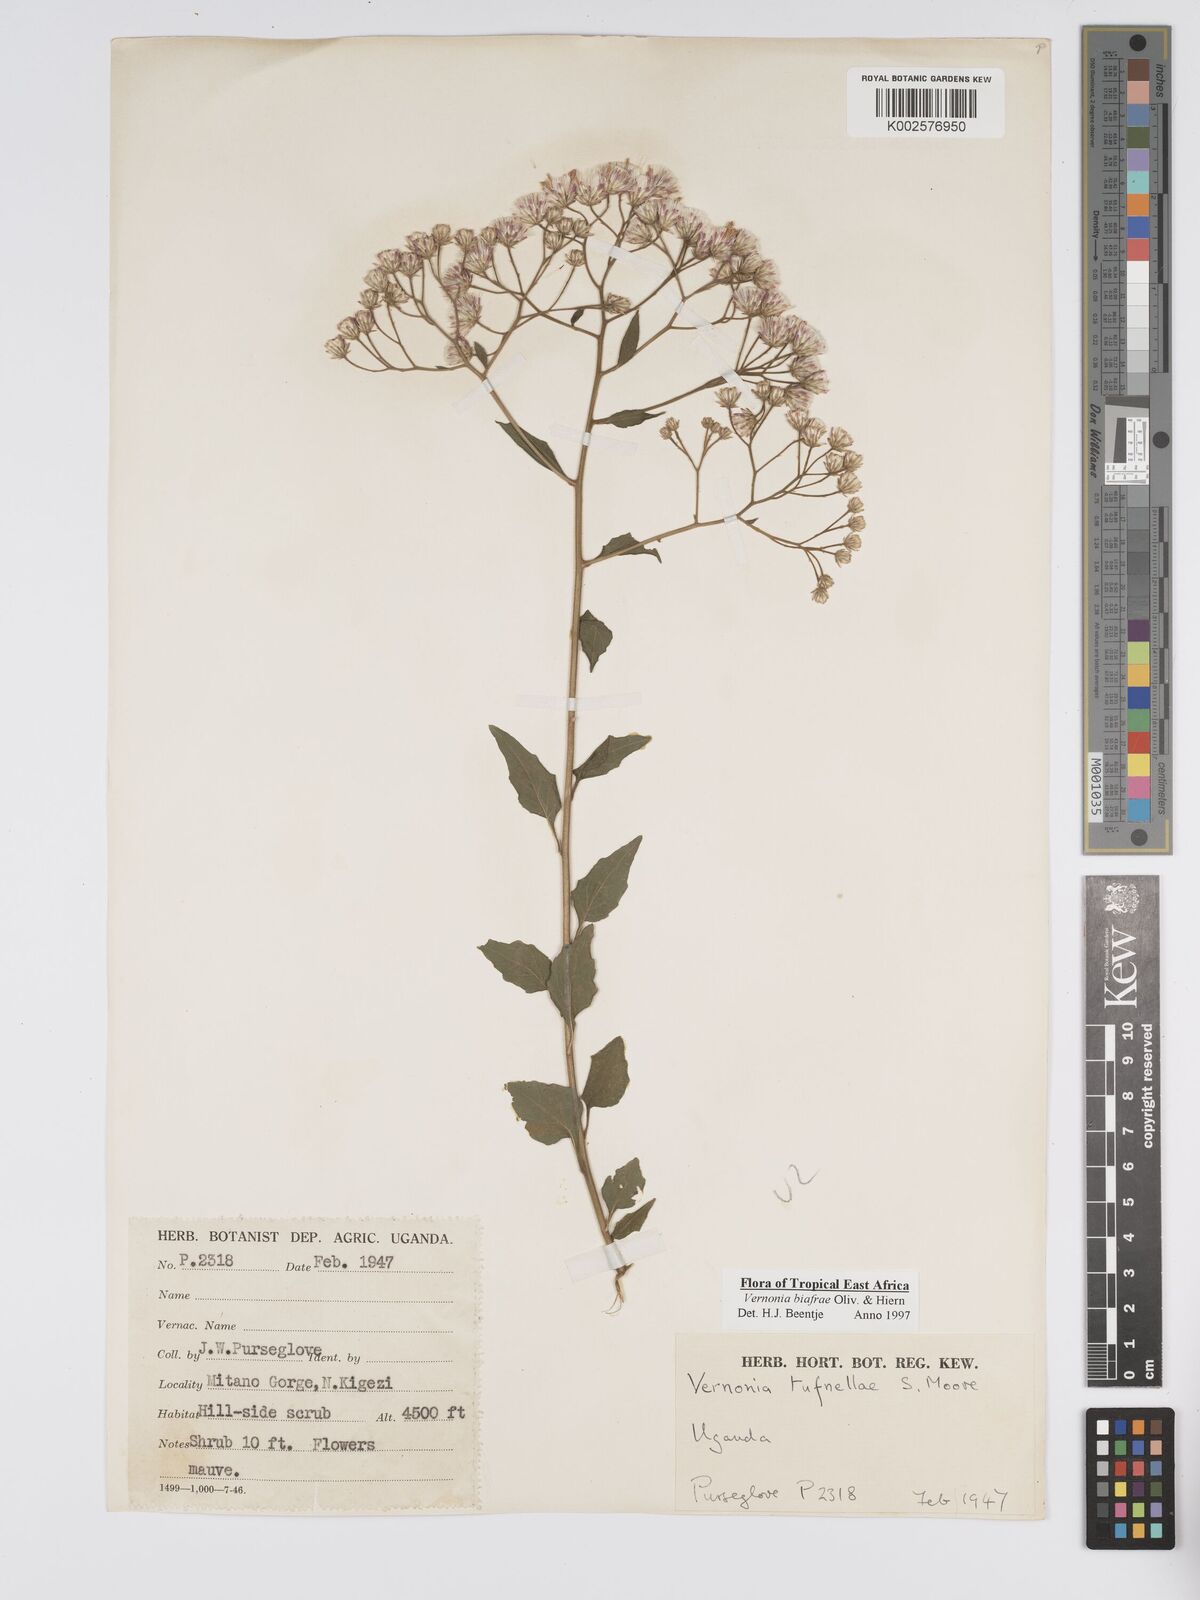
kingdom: Plantae
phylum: Tracheophyta
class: Magnoliopsida
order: Asterales
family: Asteraceae
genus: Distephanus
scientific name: Distephanus biafrae
